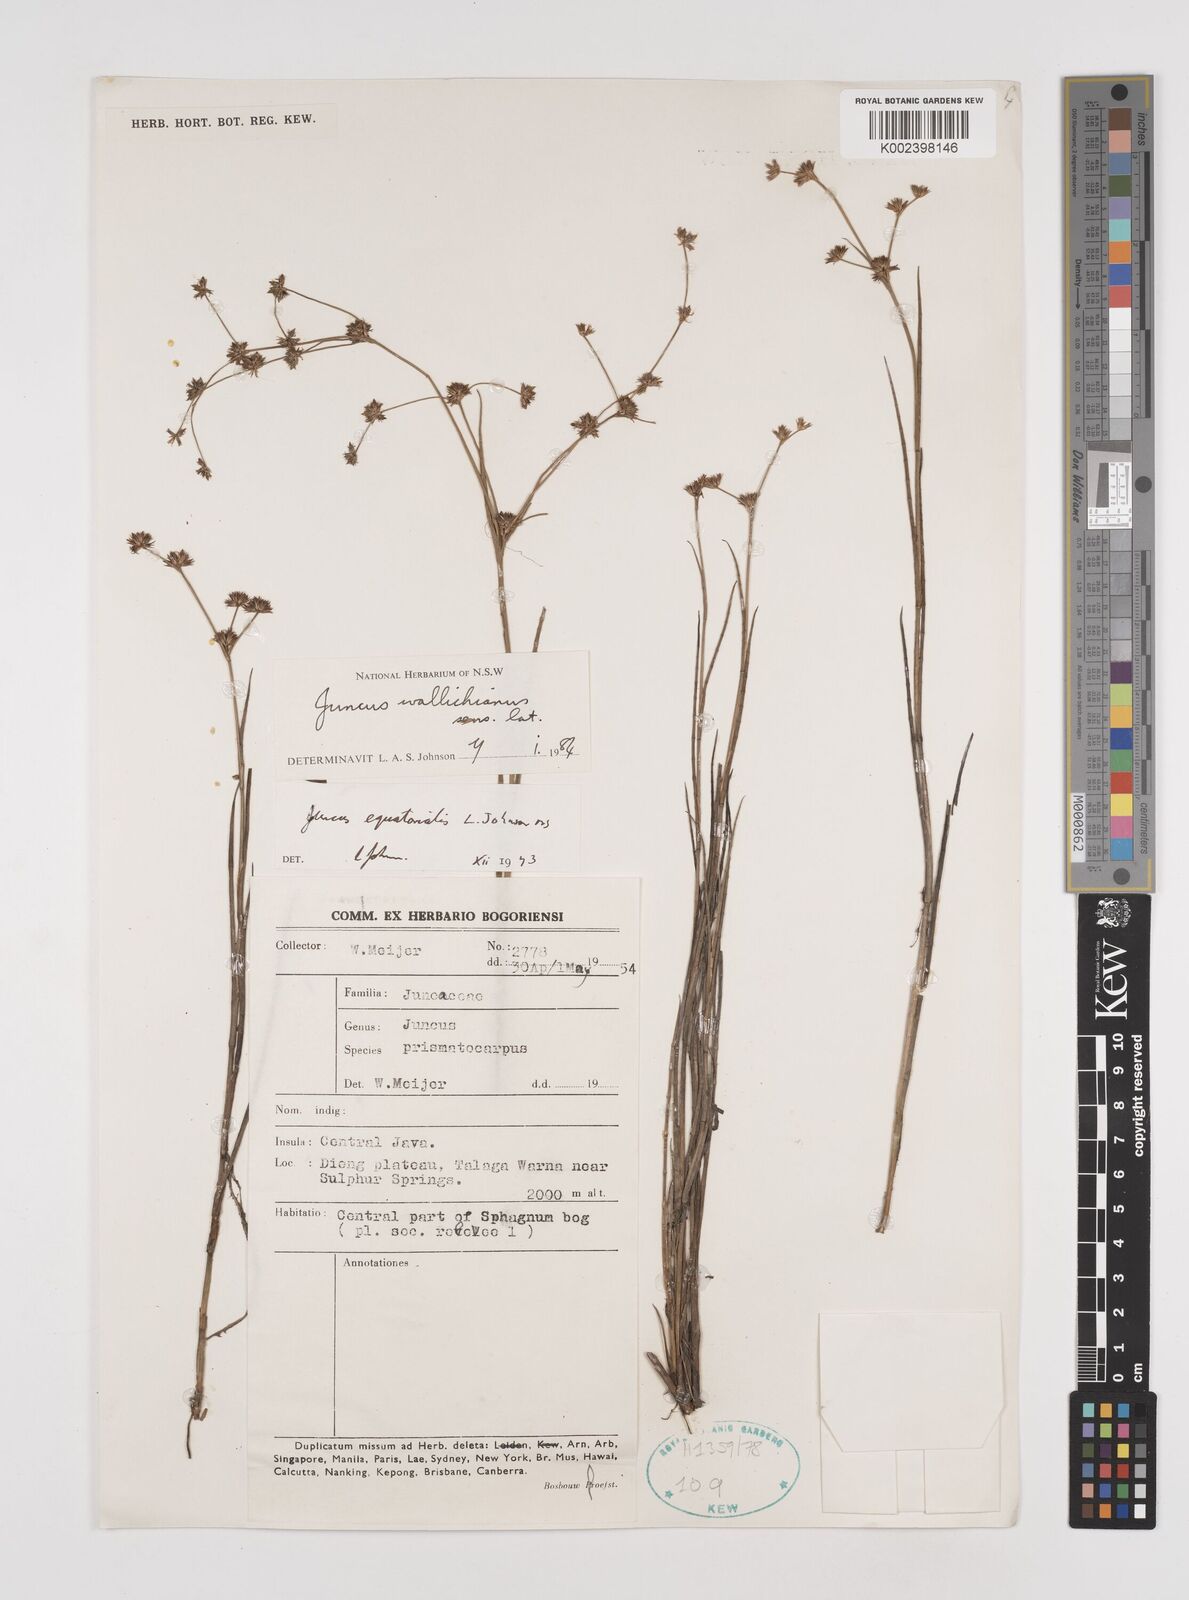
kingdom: Plantae
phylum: Tracheophyta
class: Liliopsida
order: Poales
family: Juncaceae
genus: Juncus
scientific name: Juncus wallichianus
